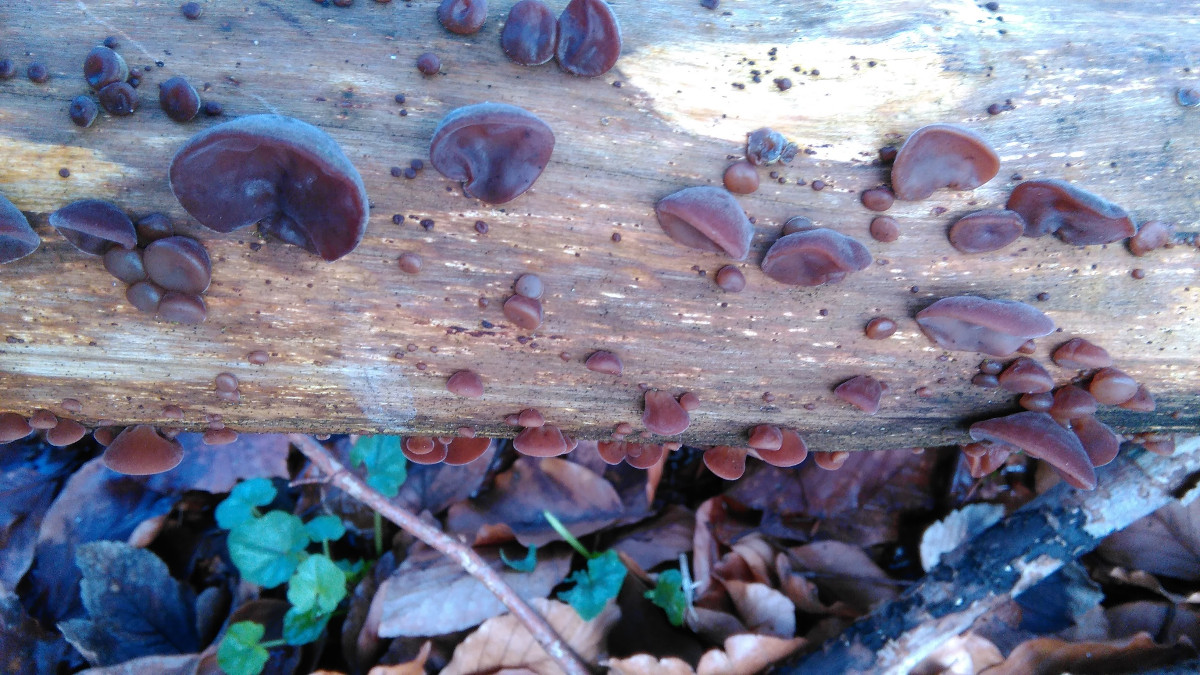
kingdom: Fungi
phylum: Basidiomycota
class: Agaricomycetes
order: Auriculariales
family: Auriculariaceae
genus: Auricularia
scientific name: Auricularia auricula-judae
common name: almindelig judasøre
